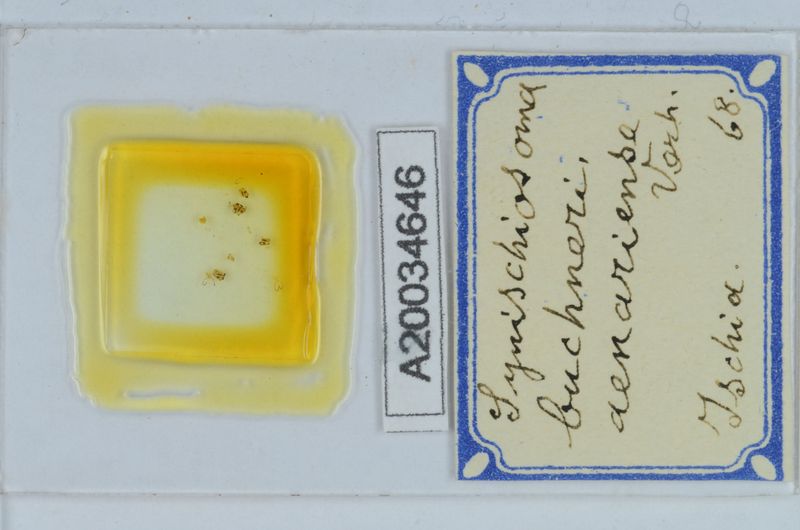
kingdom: Animalia
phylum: Arthropoda
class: Diplopoda
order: Chordeumatida
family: Craspedosomatidae
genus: Synischiosoma
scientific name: Synischiosoma buchneri
